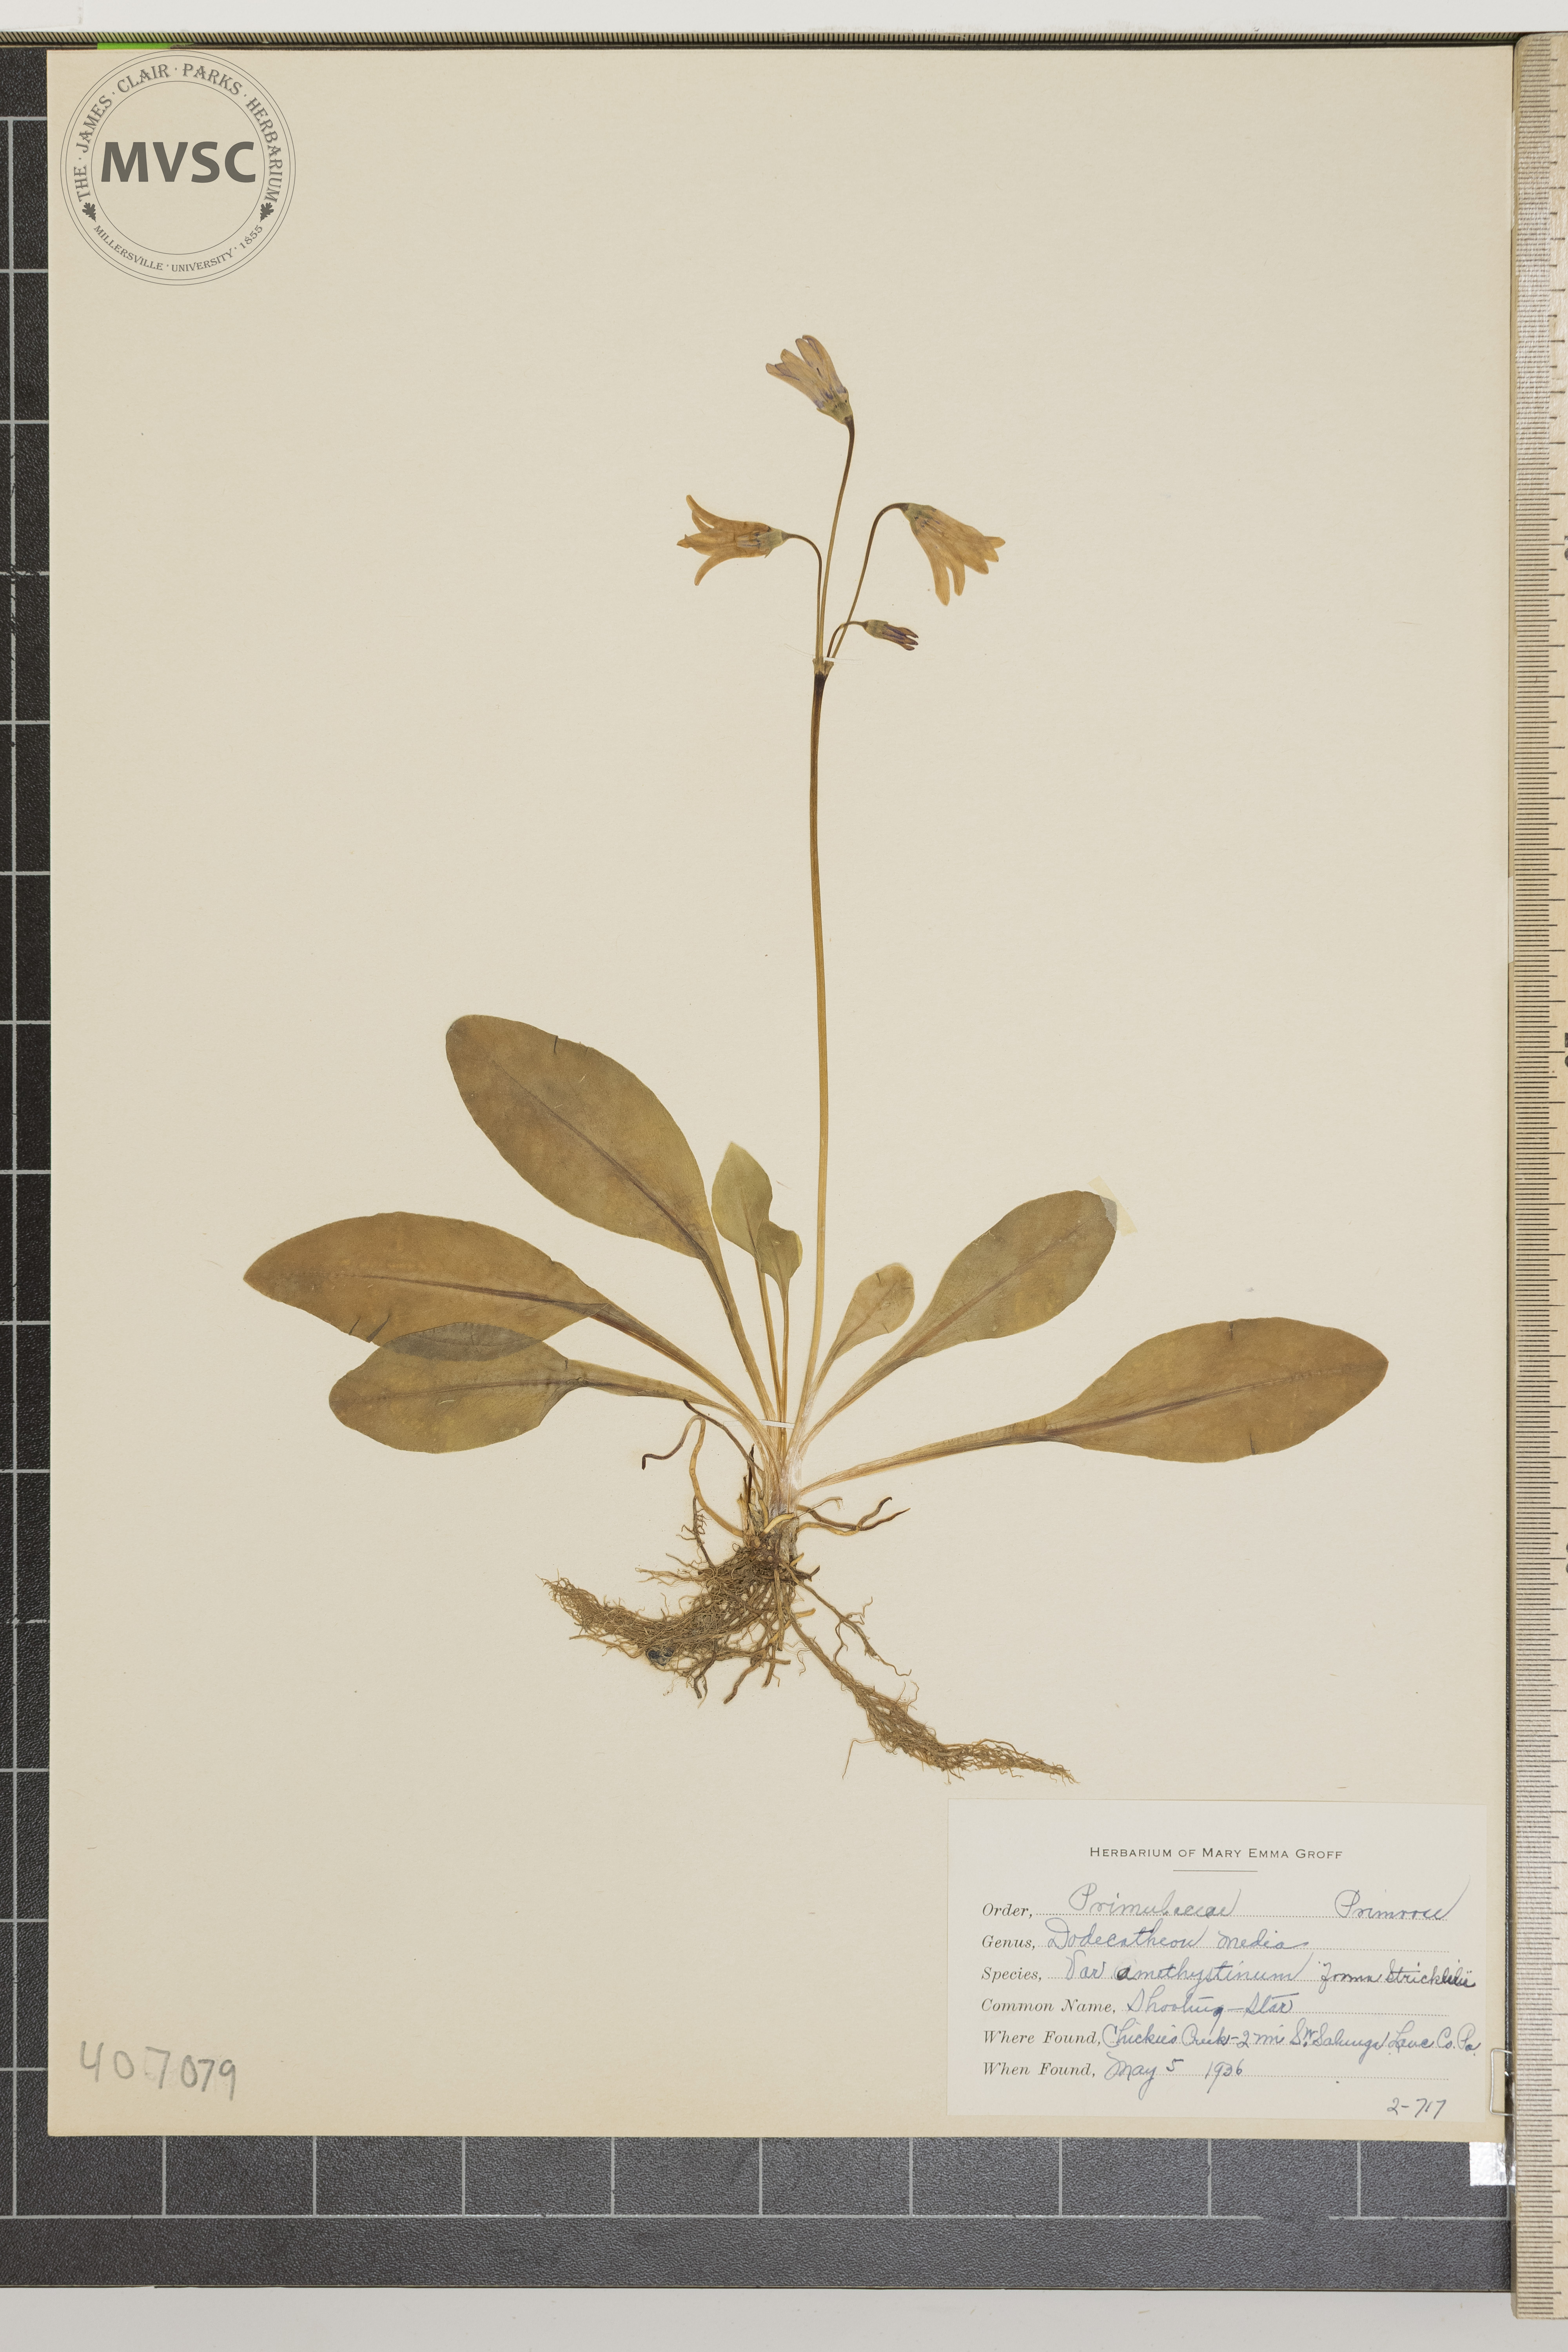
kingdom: Plantae
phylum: Tracheophyta
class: Magnoliopsida
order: Ericales
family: Primulaceae
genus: Dodecatheon
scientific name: Dodecatheon meadia
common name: jeweled shootingstar
